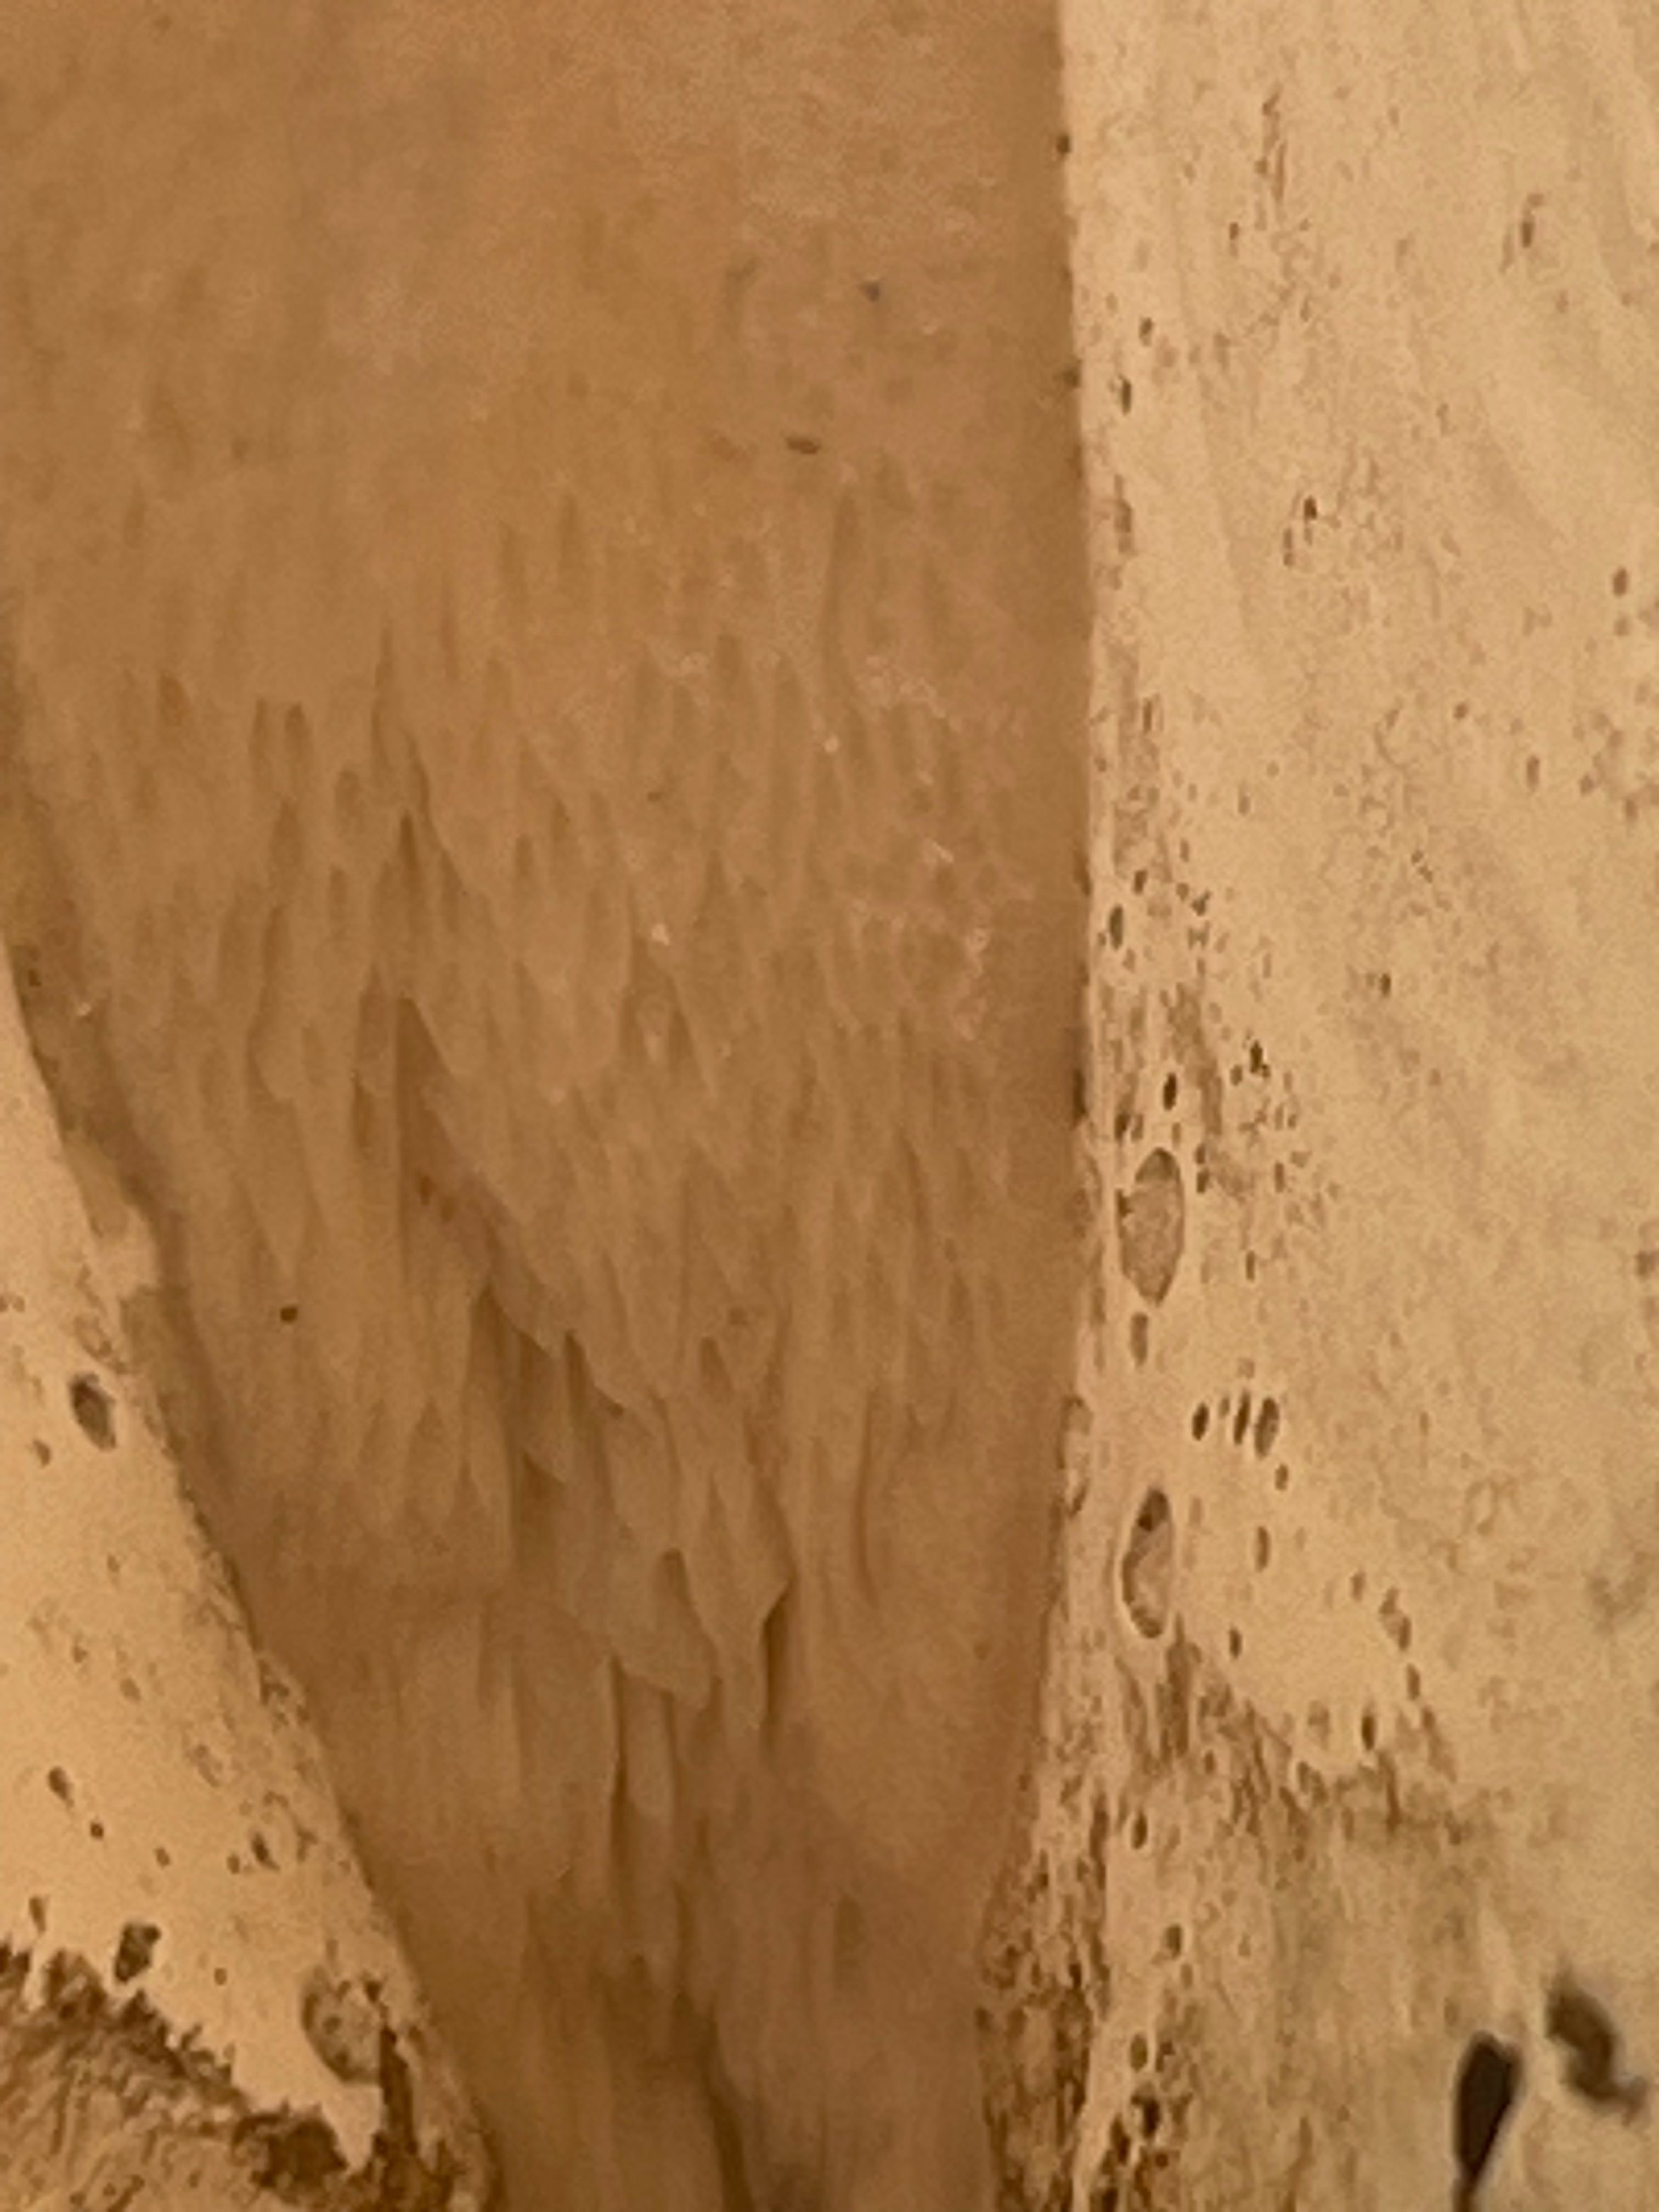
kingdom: Fungi
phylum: Basidiomycota
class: Agaricomycetes
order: Polyporales
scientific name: Polyporales
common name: poresvampordenen
